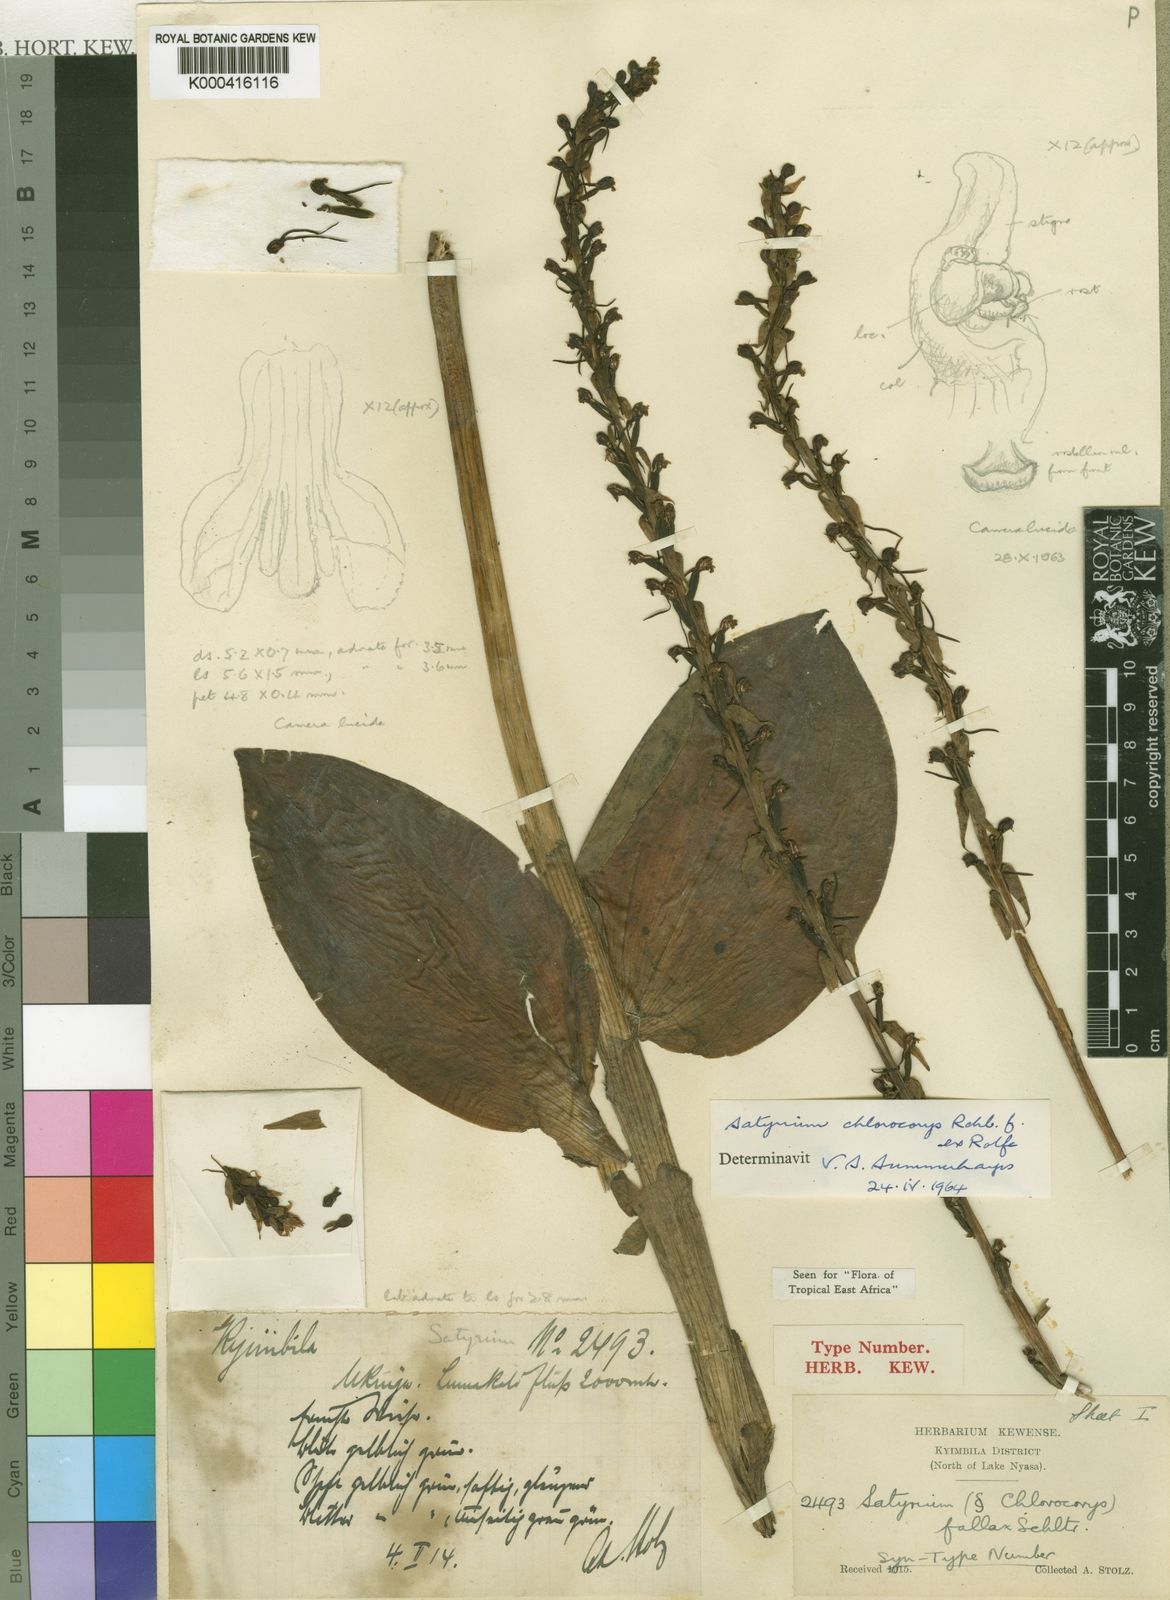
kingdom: Plantae
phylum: Tracheophyta
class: Liliopsida
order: Asparagales
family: Orchidaceae
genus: Satyrium
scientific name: Satyrium chlorocorys
